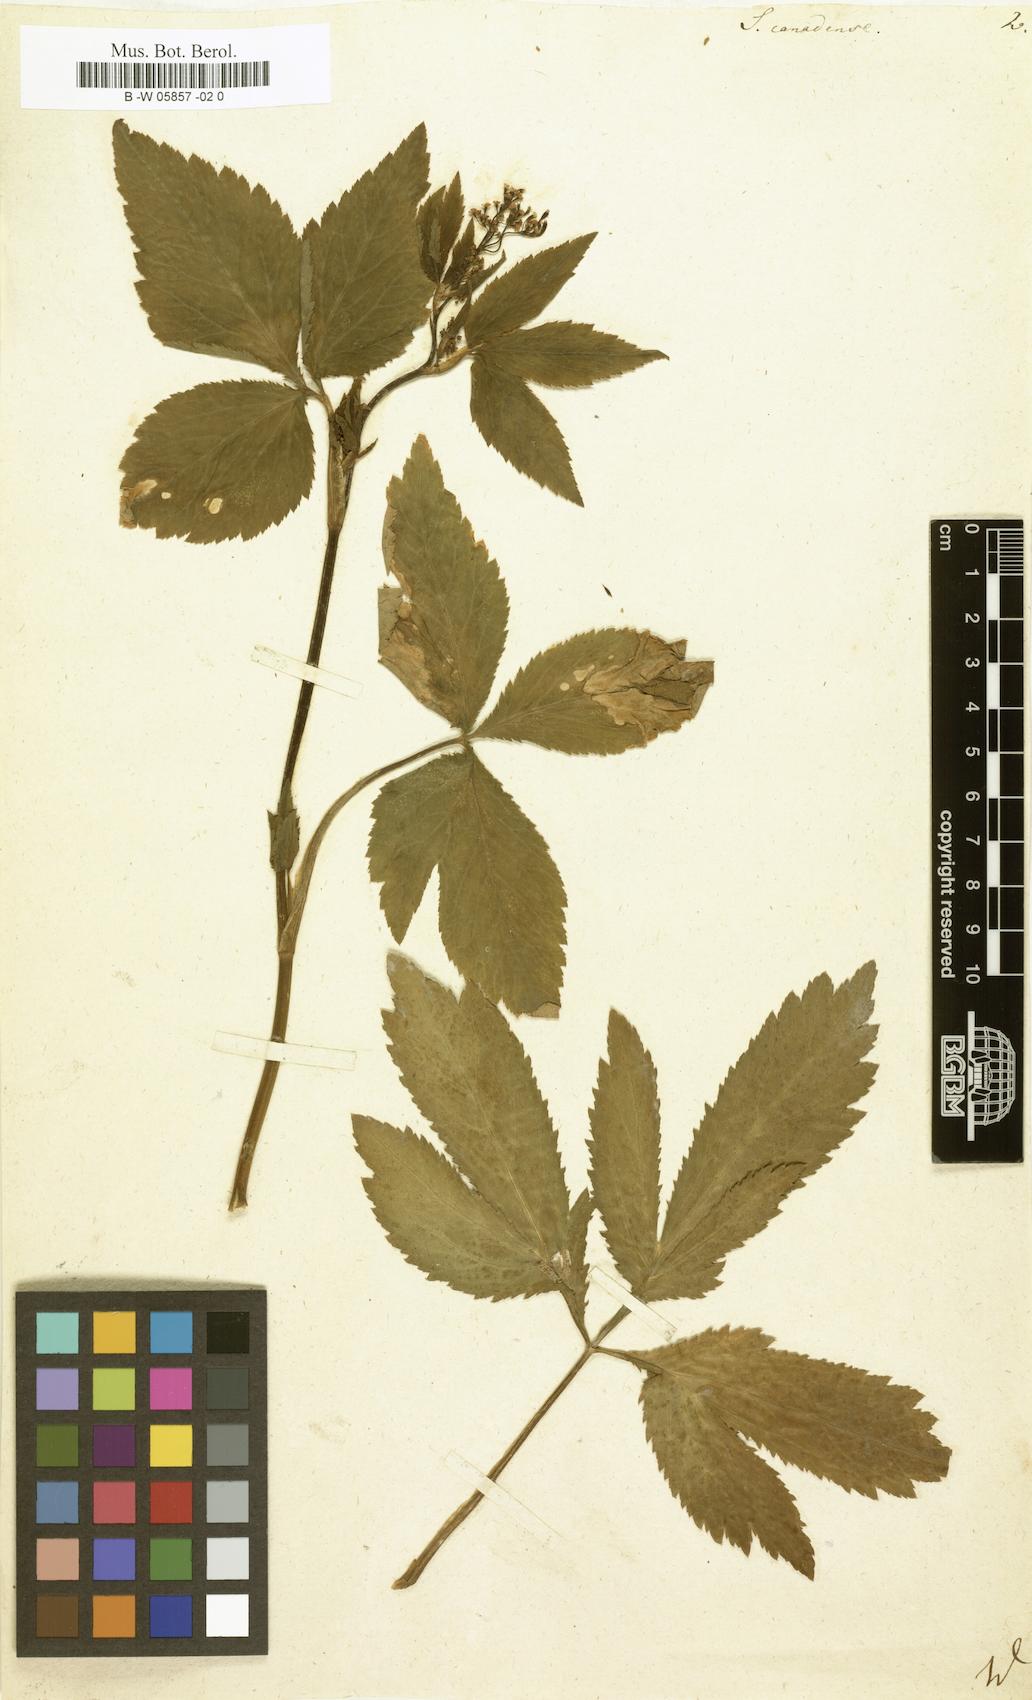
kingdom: Plantae
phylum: Tracheophyta
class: Magnoliopsida
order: Apiales
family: Apiaceae
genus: Cryptotaenia
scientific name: Cryptotaenia canadensis
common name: Honewort
